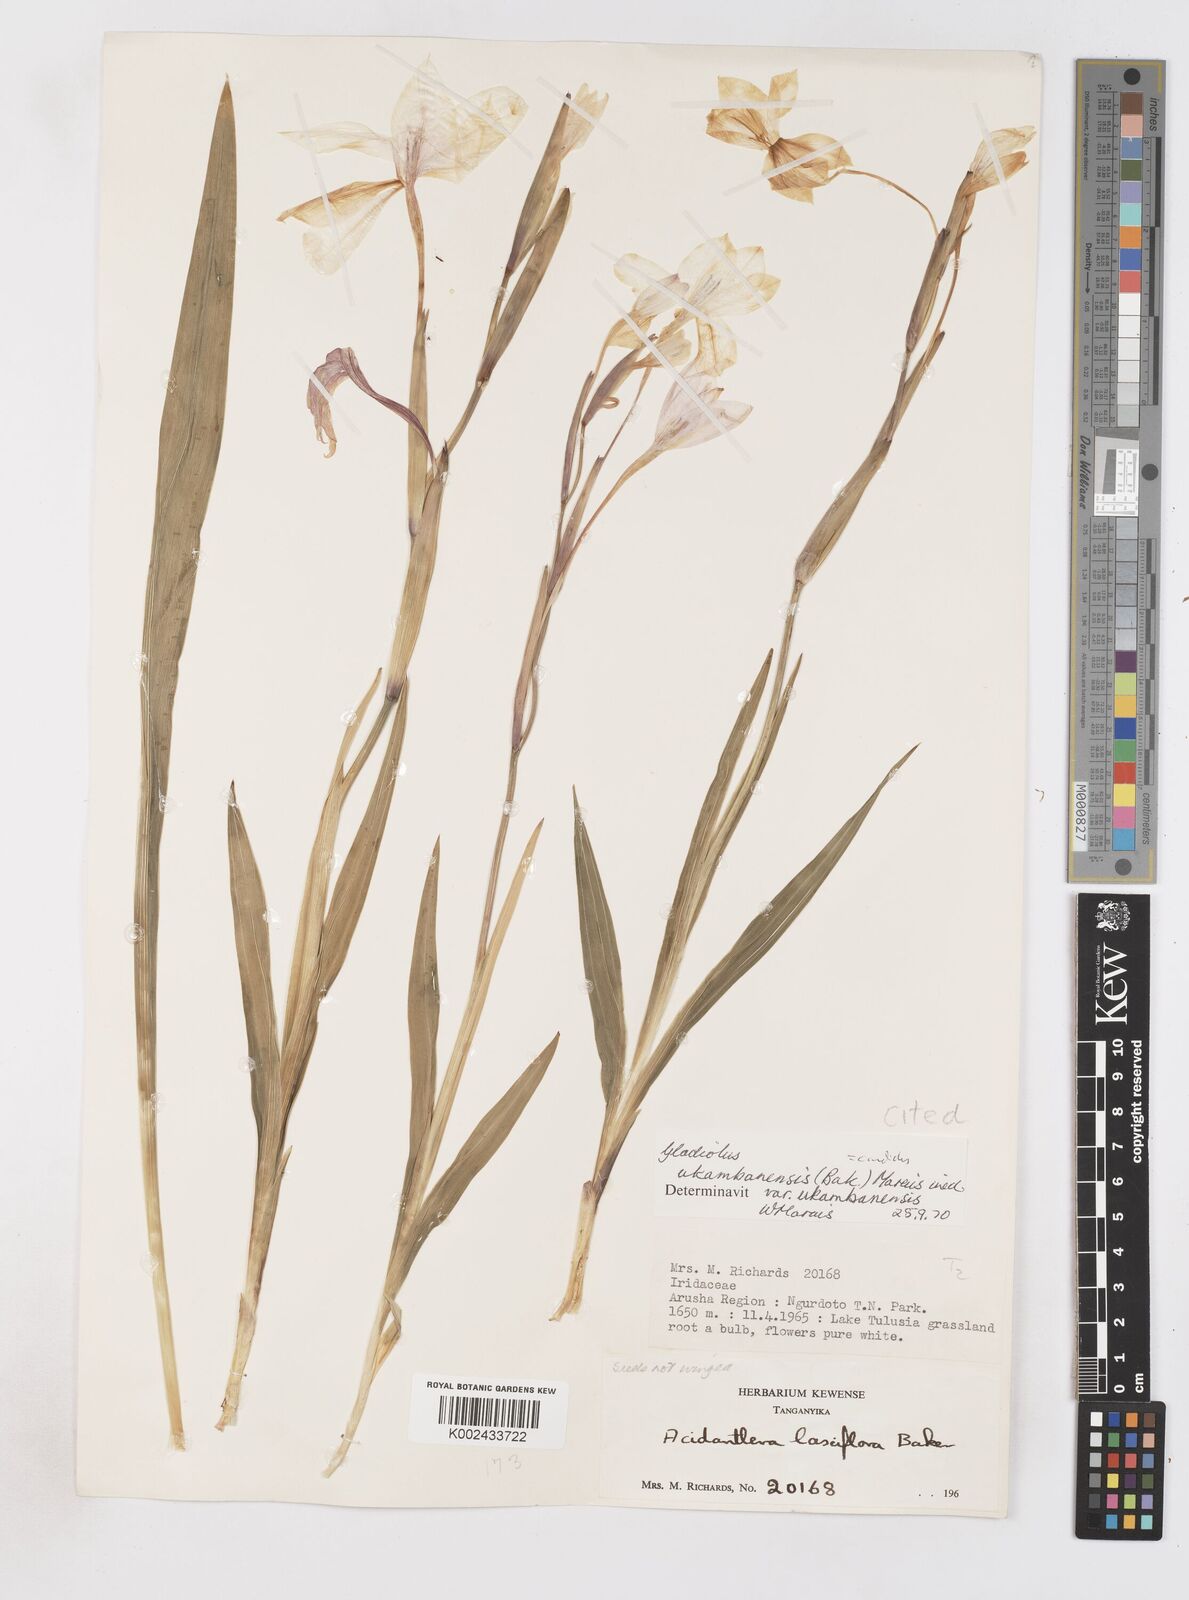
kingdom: Plantae
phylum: Tracheophyta
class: Liliopsida
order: Asparagales
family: Iridaceae
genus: Gladiolus
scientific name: Gladiolus candidus
